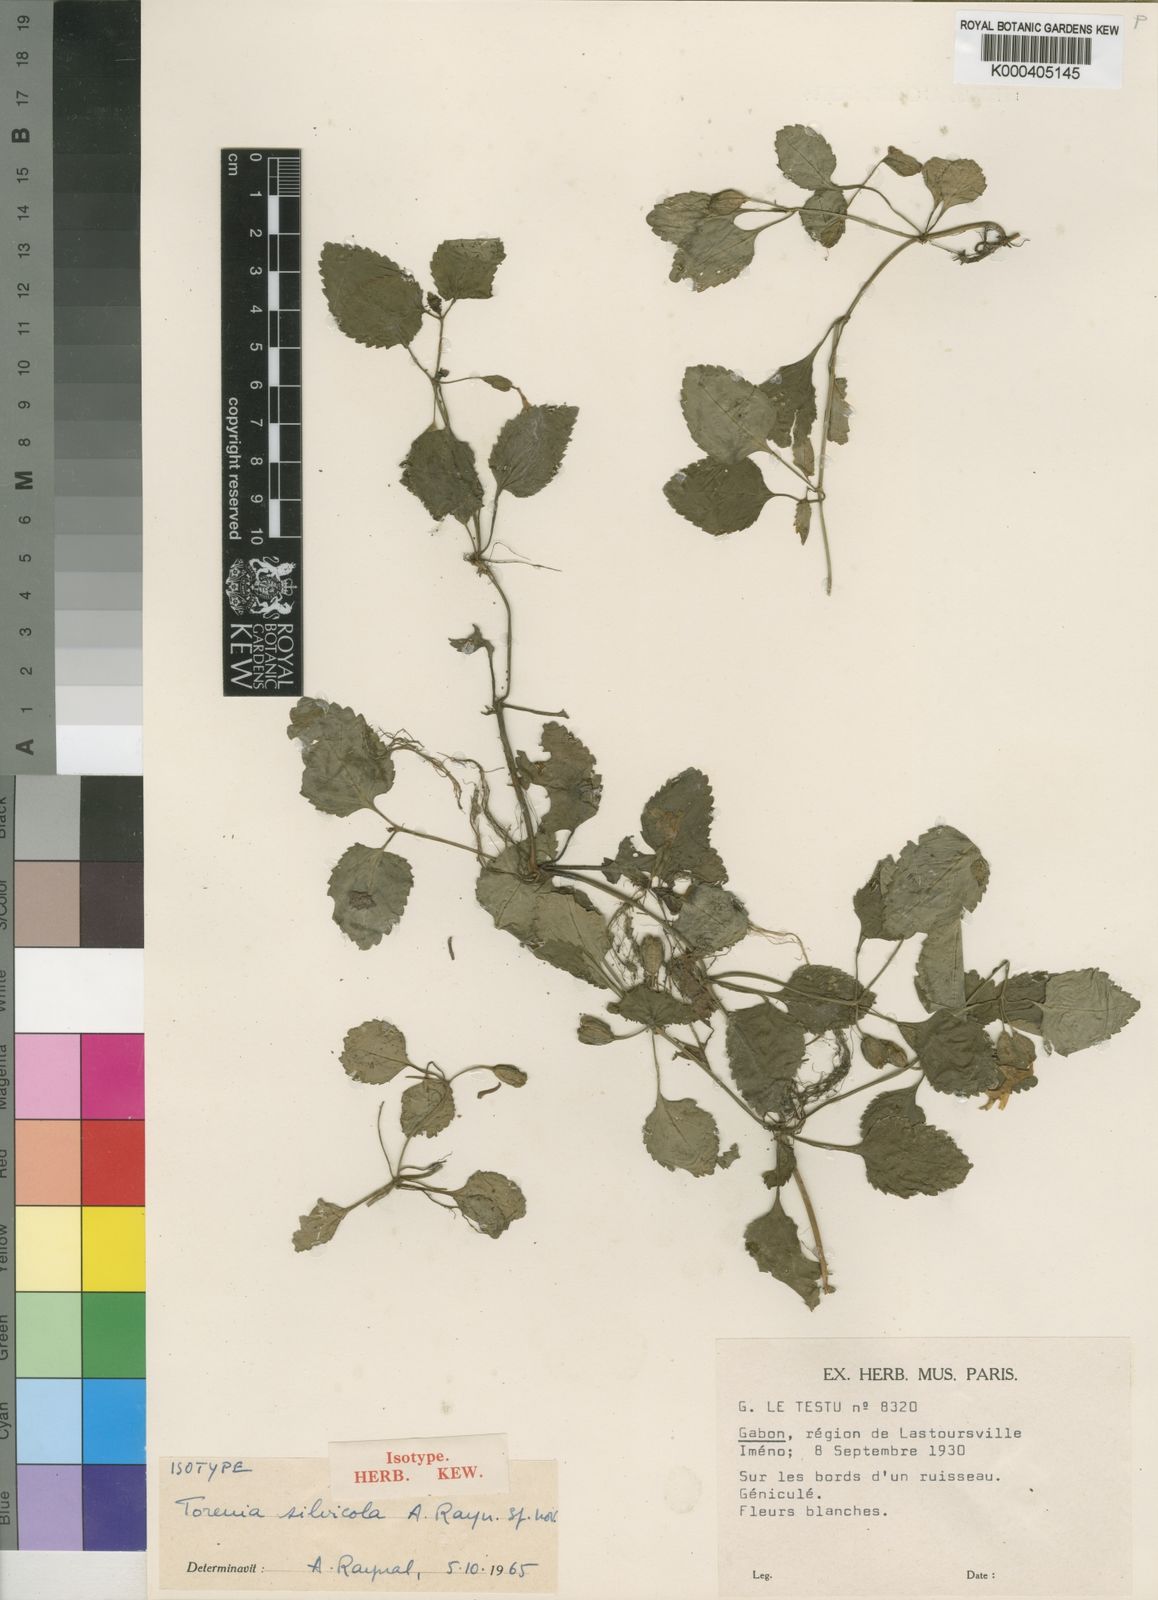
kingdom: Plantae
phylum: Tracheophyta
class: Magnoliopsida
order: Lamiales
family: Linderniaceae
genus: Torenia
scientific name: Torenia silvicola
